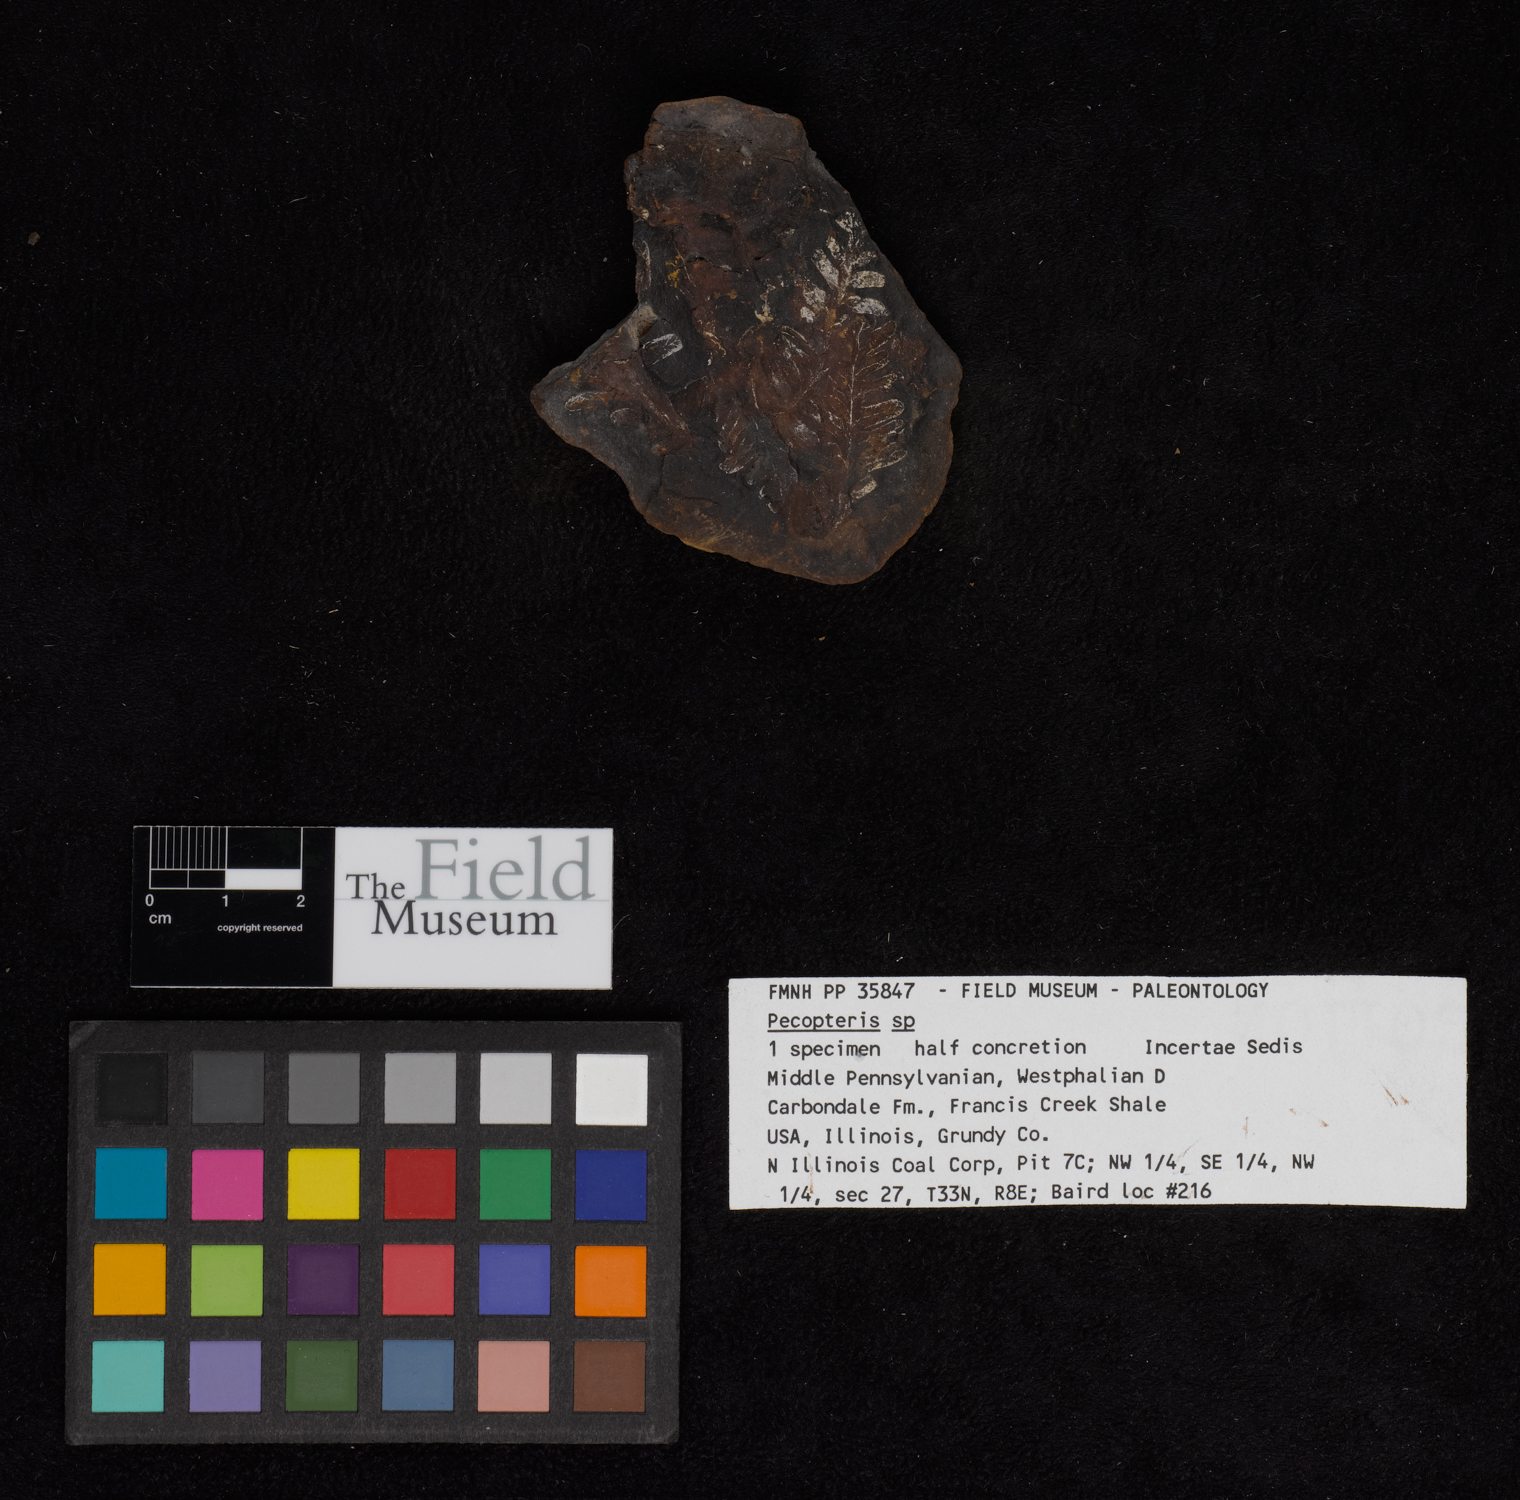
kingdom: Plantae
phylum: Tracheophyta
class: Polypodiopsida
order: Marattiales
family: Asterothecaceae
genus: Pecopteris
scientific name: Pecopteris
